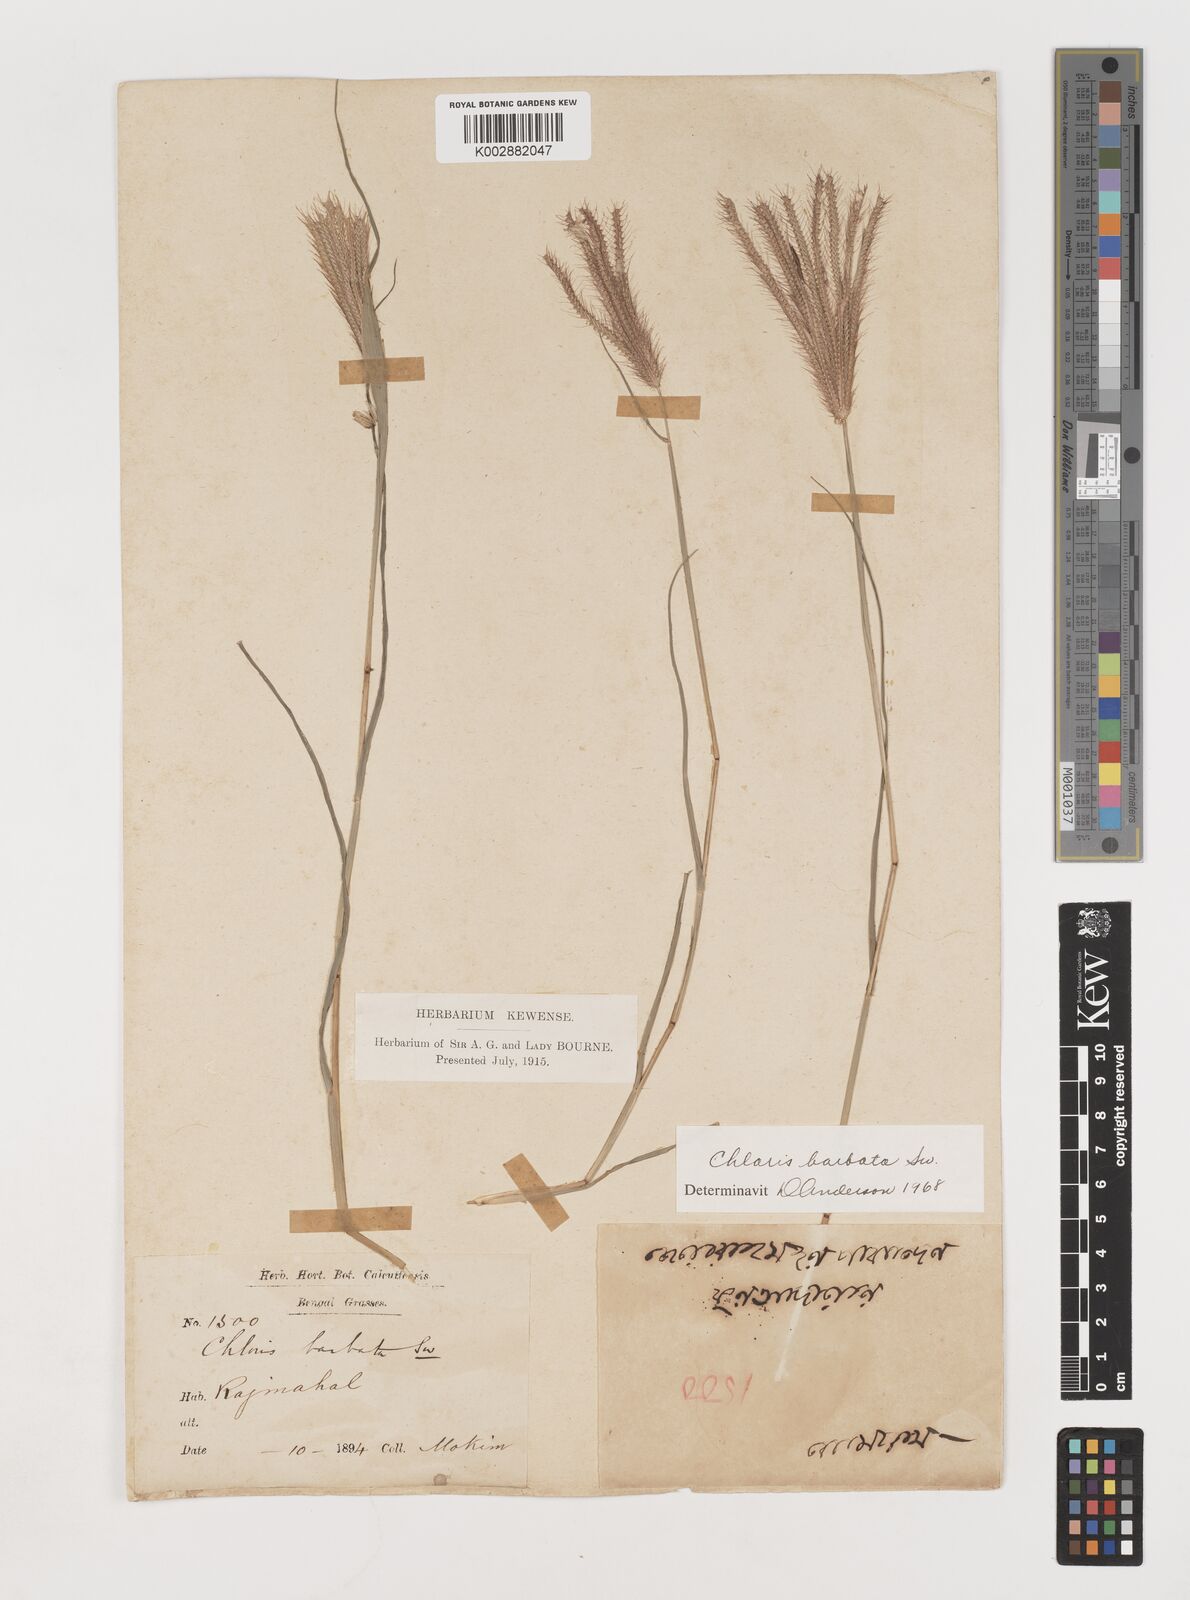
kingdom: Plantae
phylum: Tracheophyta
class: Liliopsida
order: Poales
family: Poaceae
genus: Chloris
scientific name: Chloris barbata
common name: Swollen fingergrass
